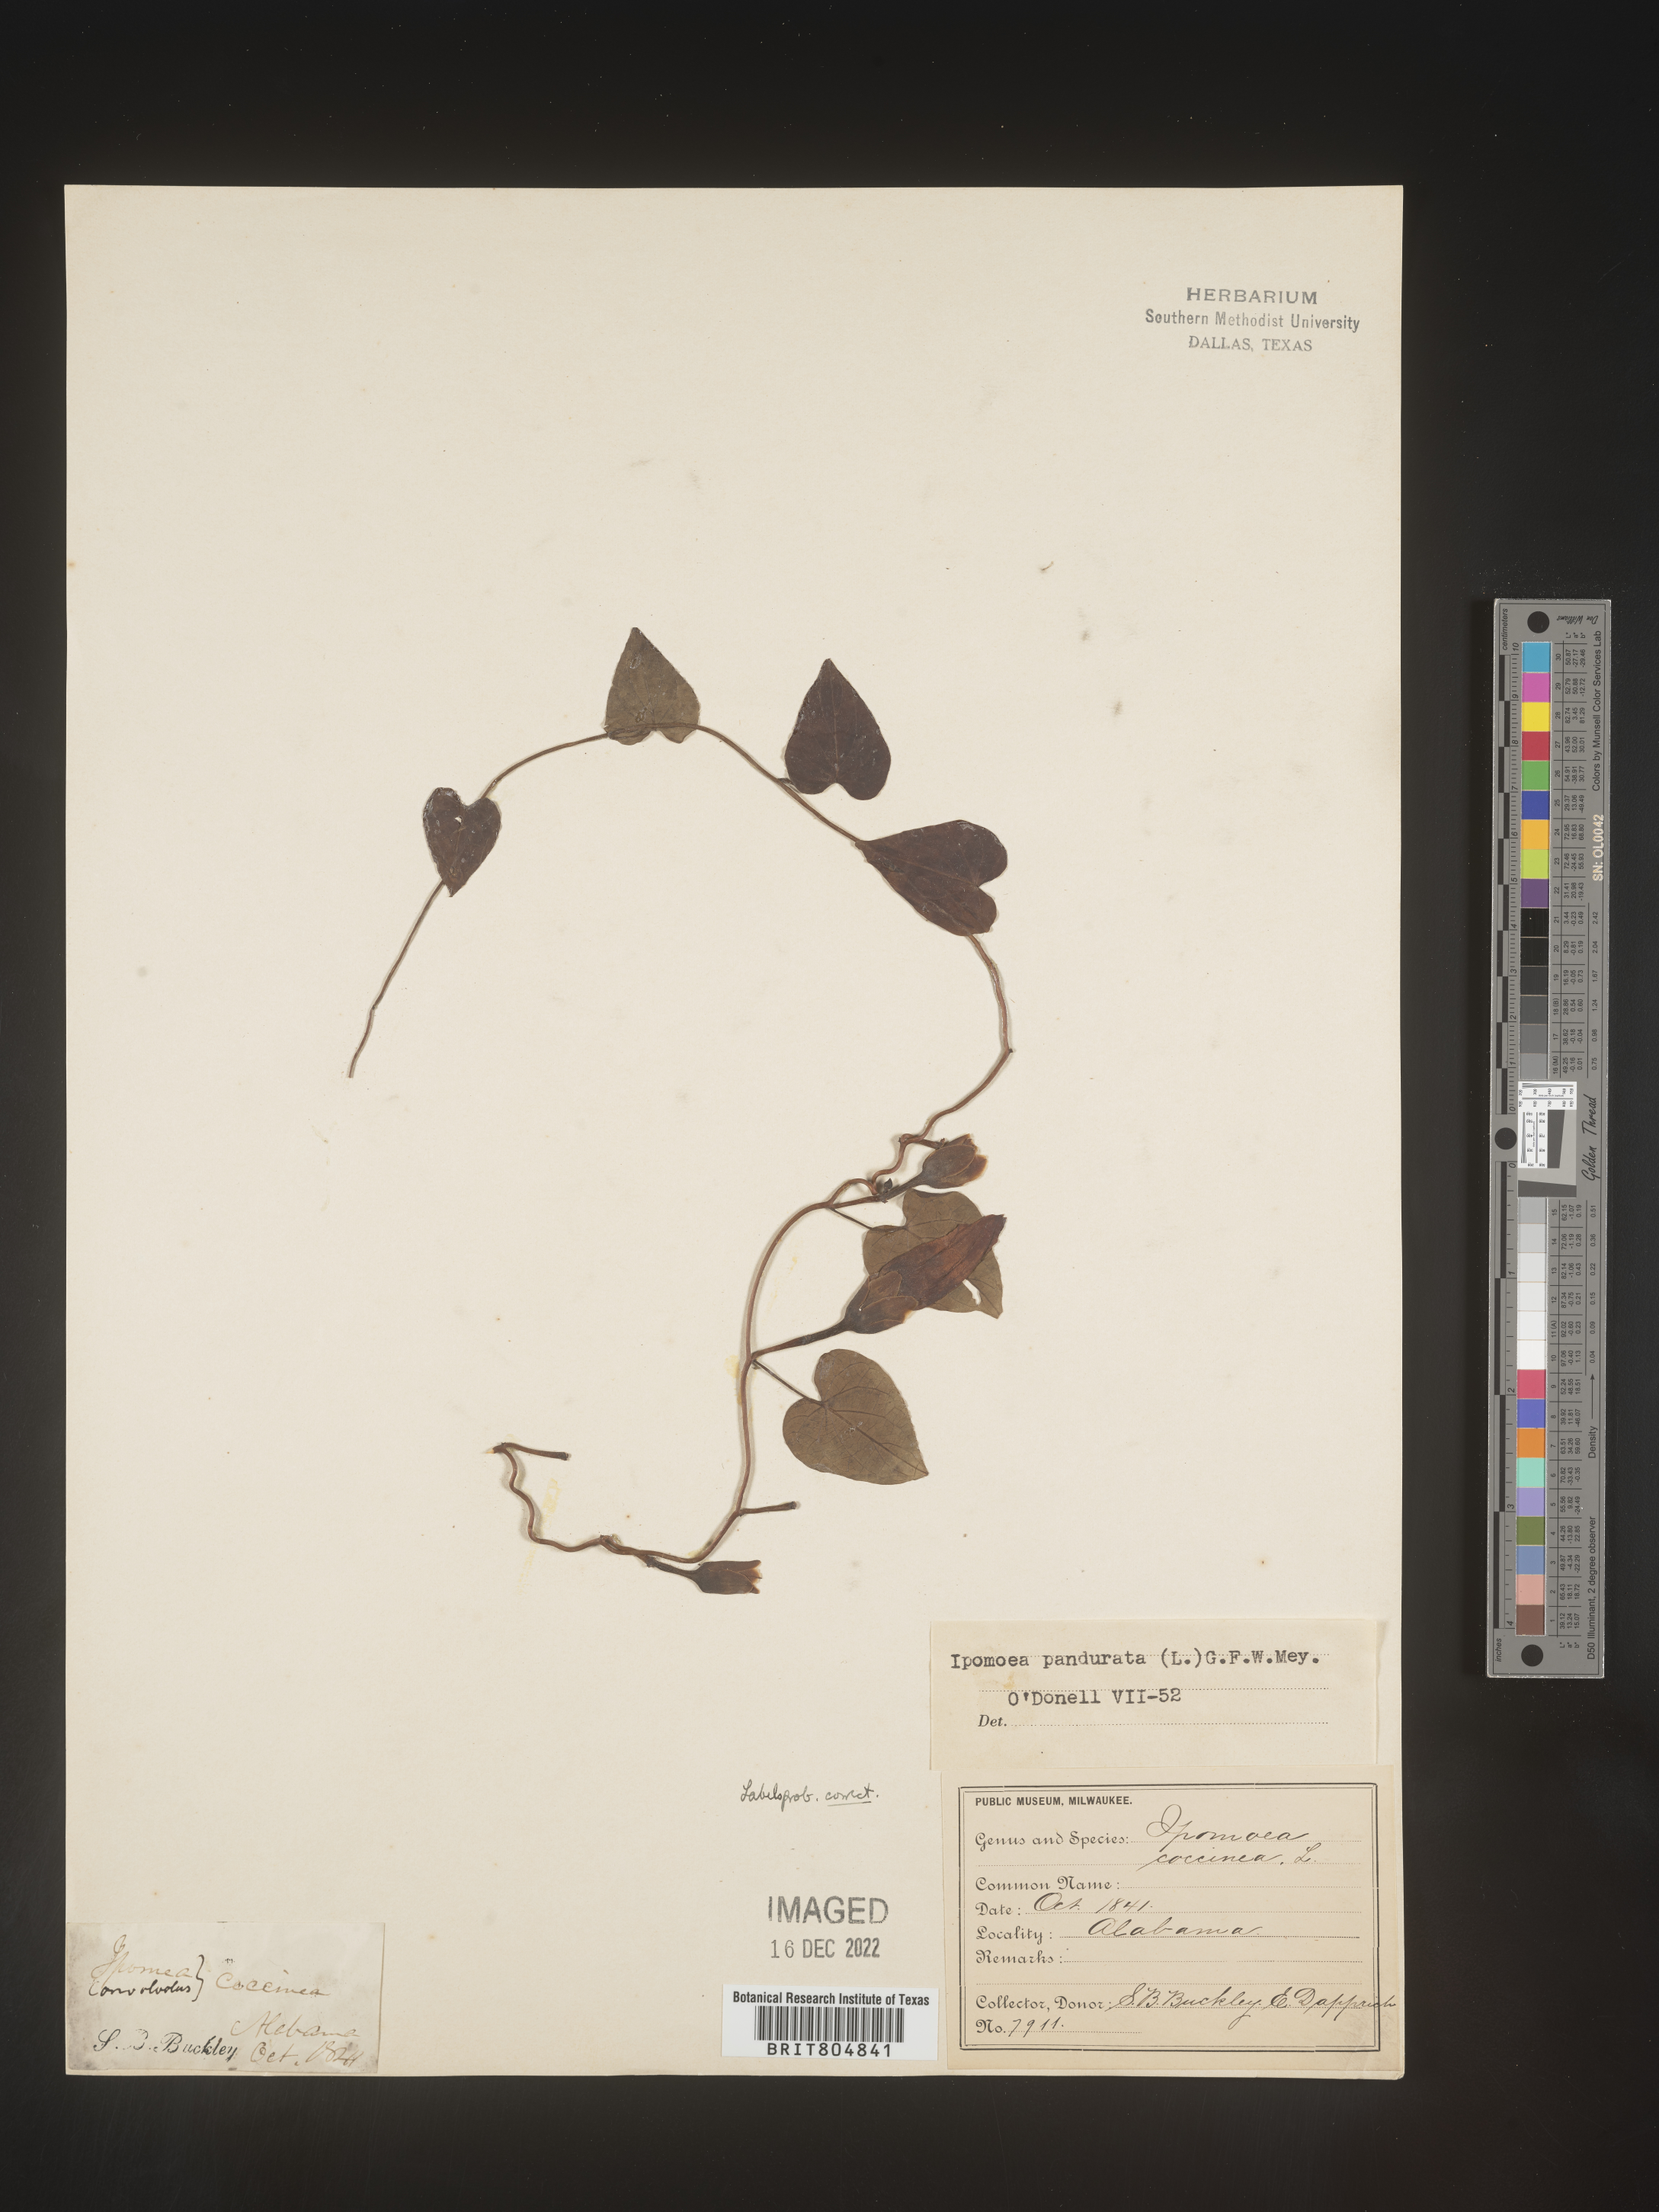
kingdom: Plantae
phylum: Tracheophyta
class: Magnoliopsida
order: Solanales
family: Convolvulaceae
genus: Ipomoea
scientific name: Ipomoea pandurata
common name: Man-of-the-earth
